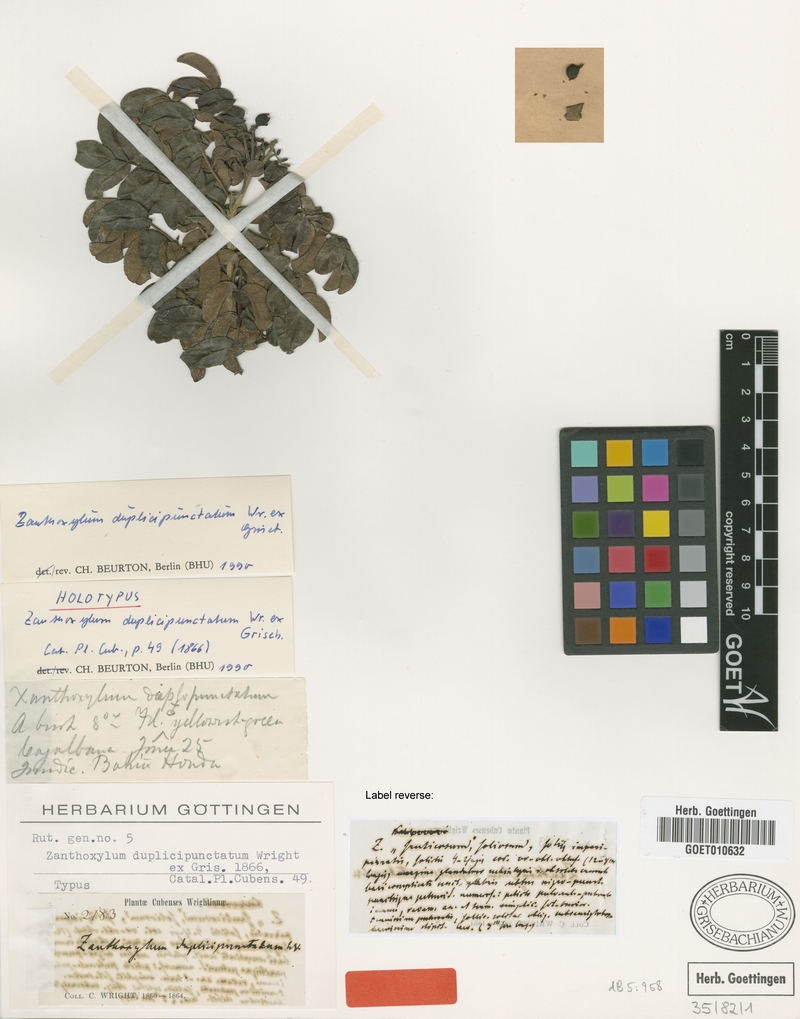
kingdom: Plantae
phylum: Tracheophyta
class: Magnoliopsida
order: Sapindales
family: Rutaceae
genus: Zanthoxylum
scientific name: Zanthoxylum flavum
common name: West indian satinwood
